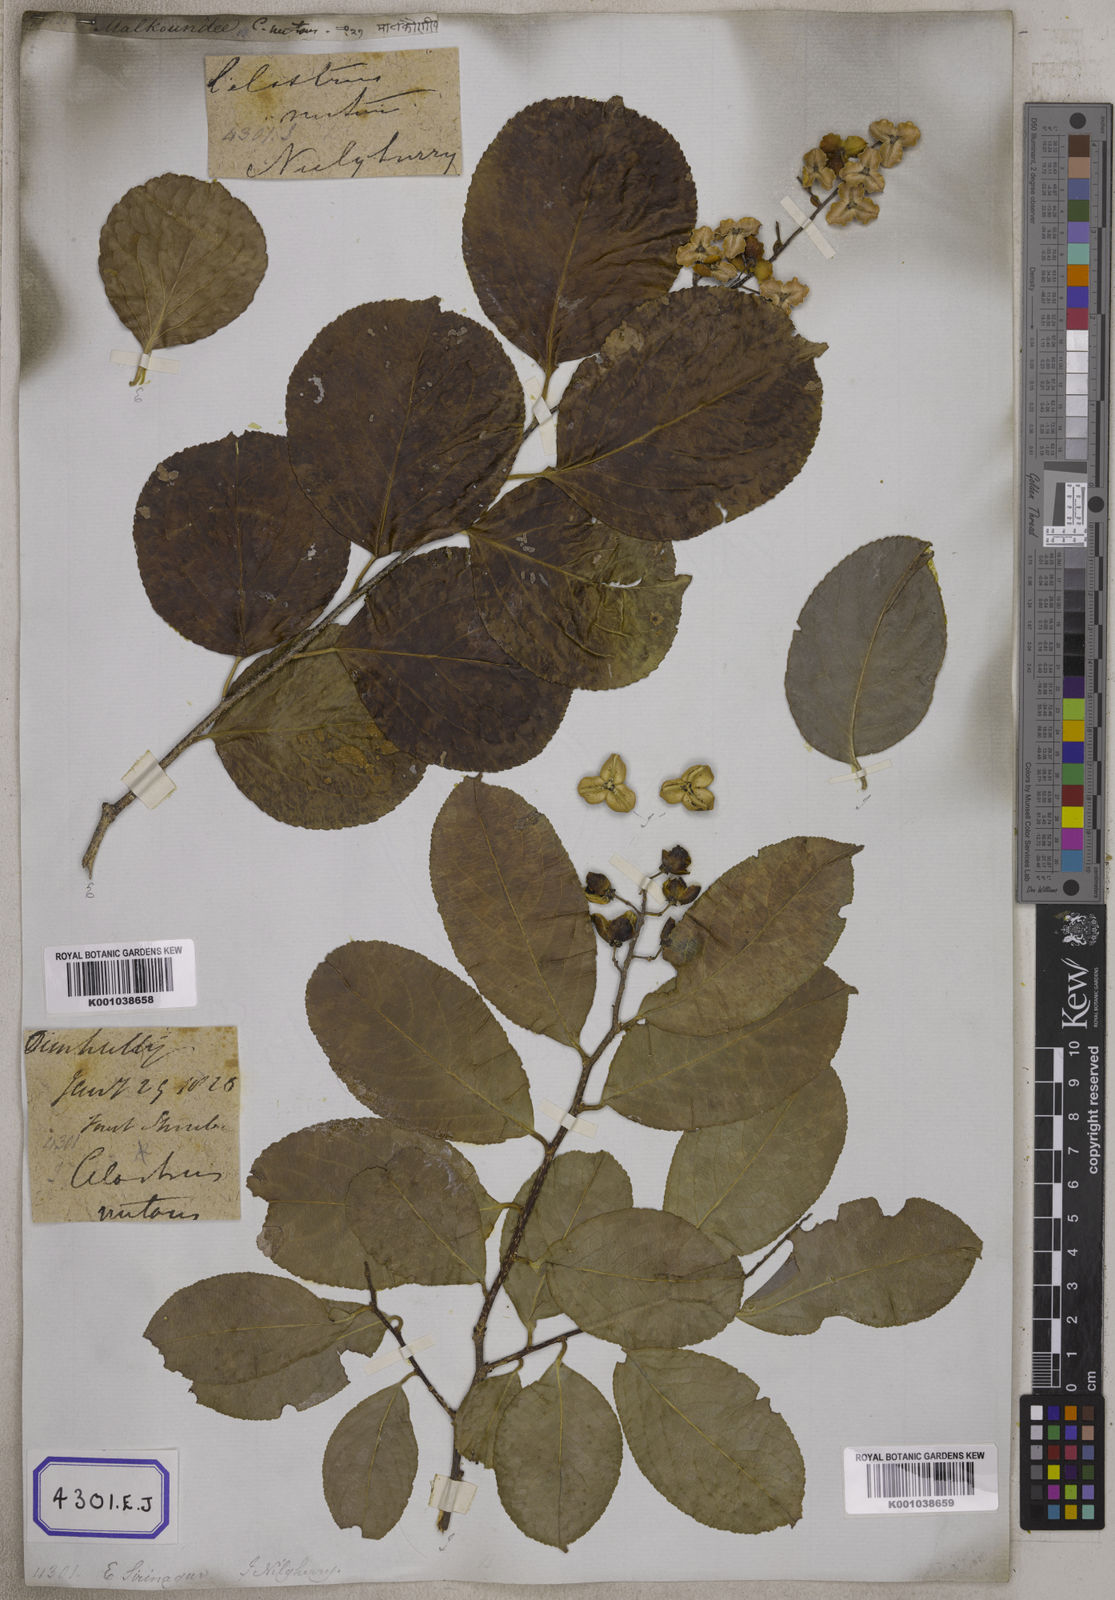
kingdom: Plantae
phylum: Tracheophyta
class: Magnoliopsida
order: Celastrales
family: Celastraceae
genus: Celastrus
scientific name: Celastrus paniculatus
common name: Oriental bittersweet; staff vine
